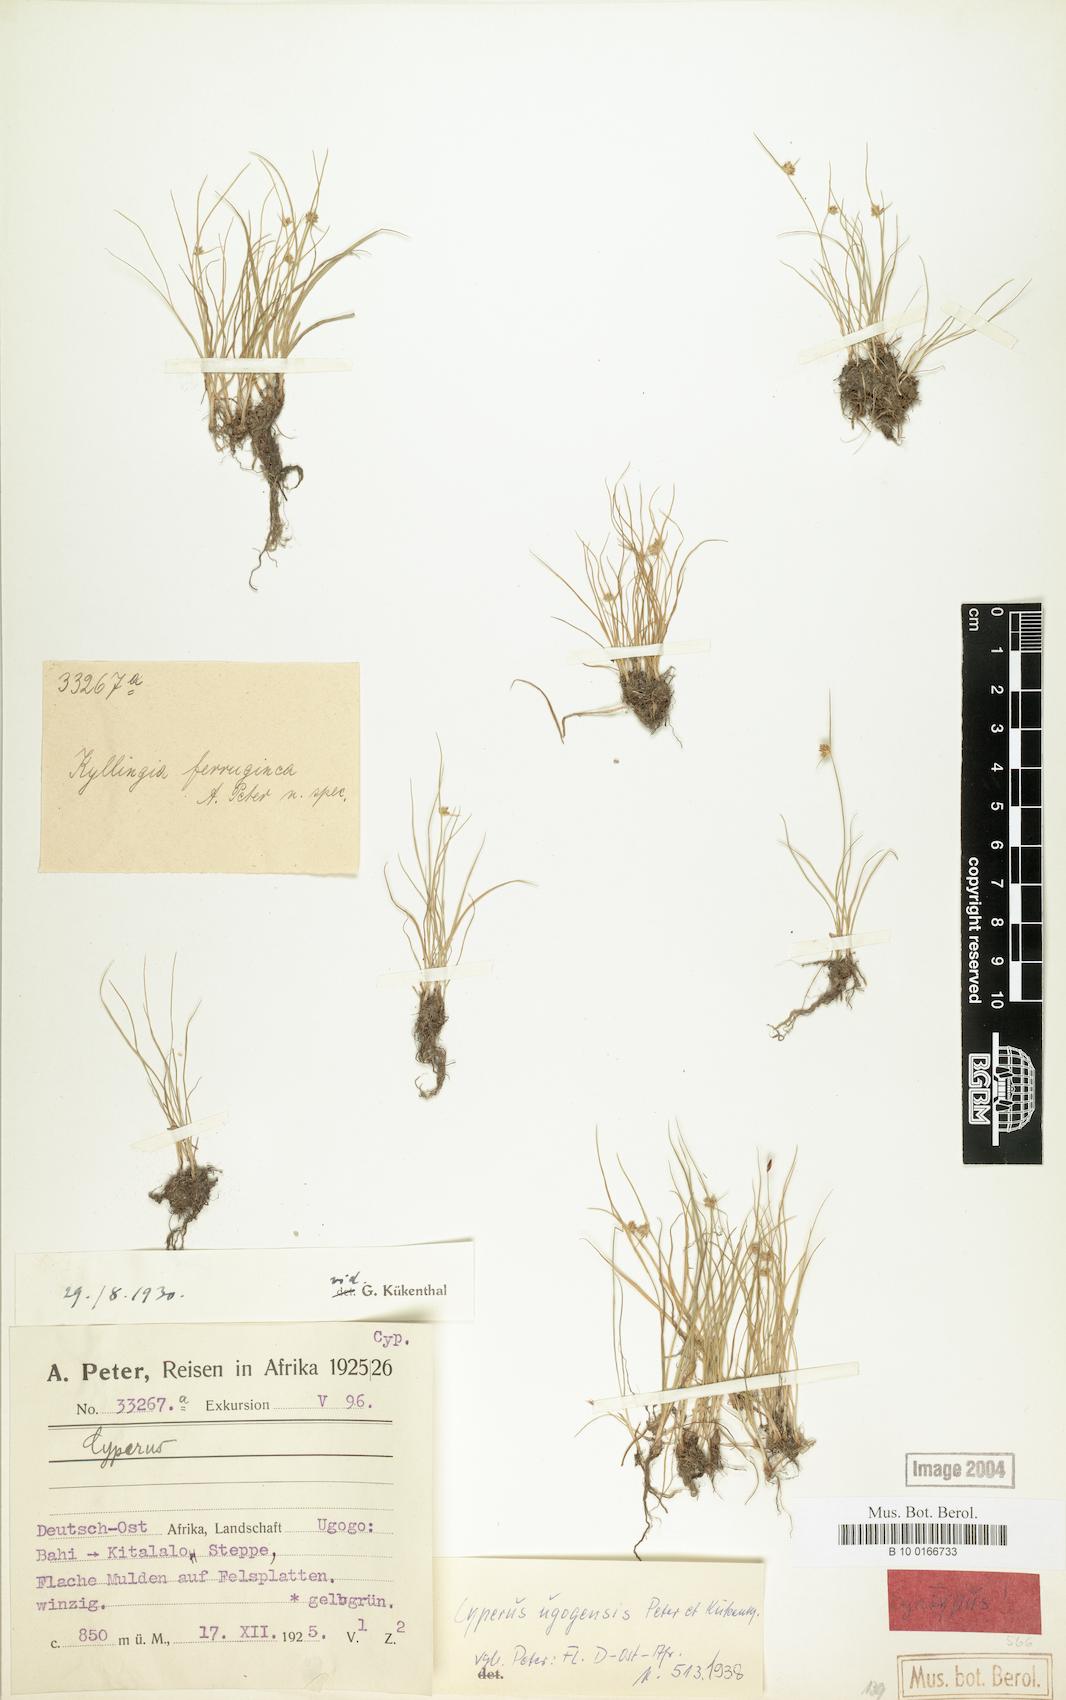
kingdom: Plantae
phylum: Tracheophyta
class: Liliopsida
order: Poales
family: Cyperaceae
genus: Cyperus
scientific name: Cyperus ugogensis
